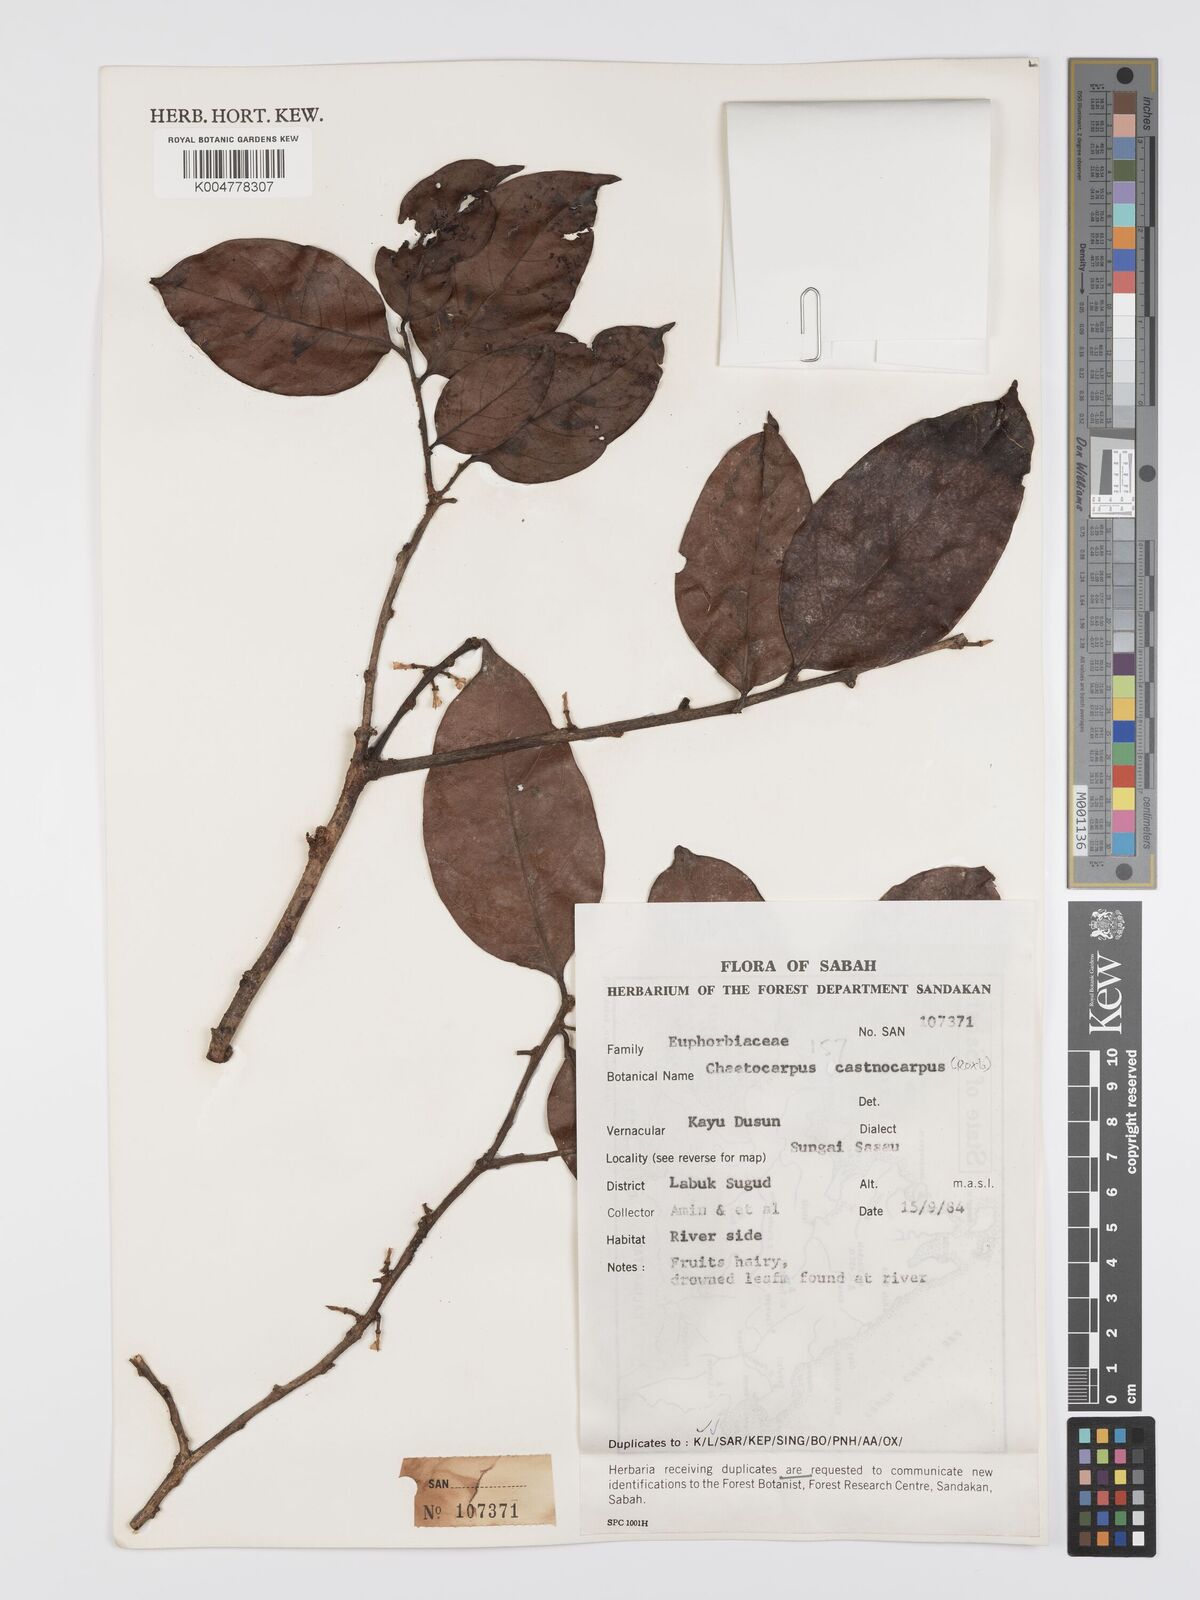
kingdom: Plantae
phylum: Tracheophyta
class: Magnoliopsida
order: Malpighiales
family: Peraceae
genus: Chaetocarpus
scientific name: Chaetocarpus castanocarpus
